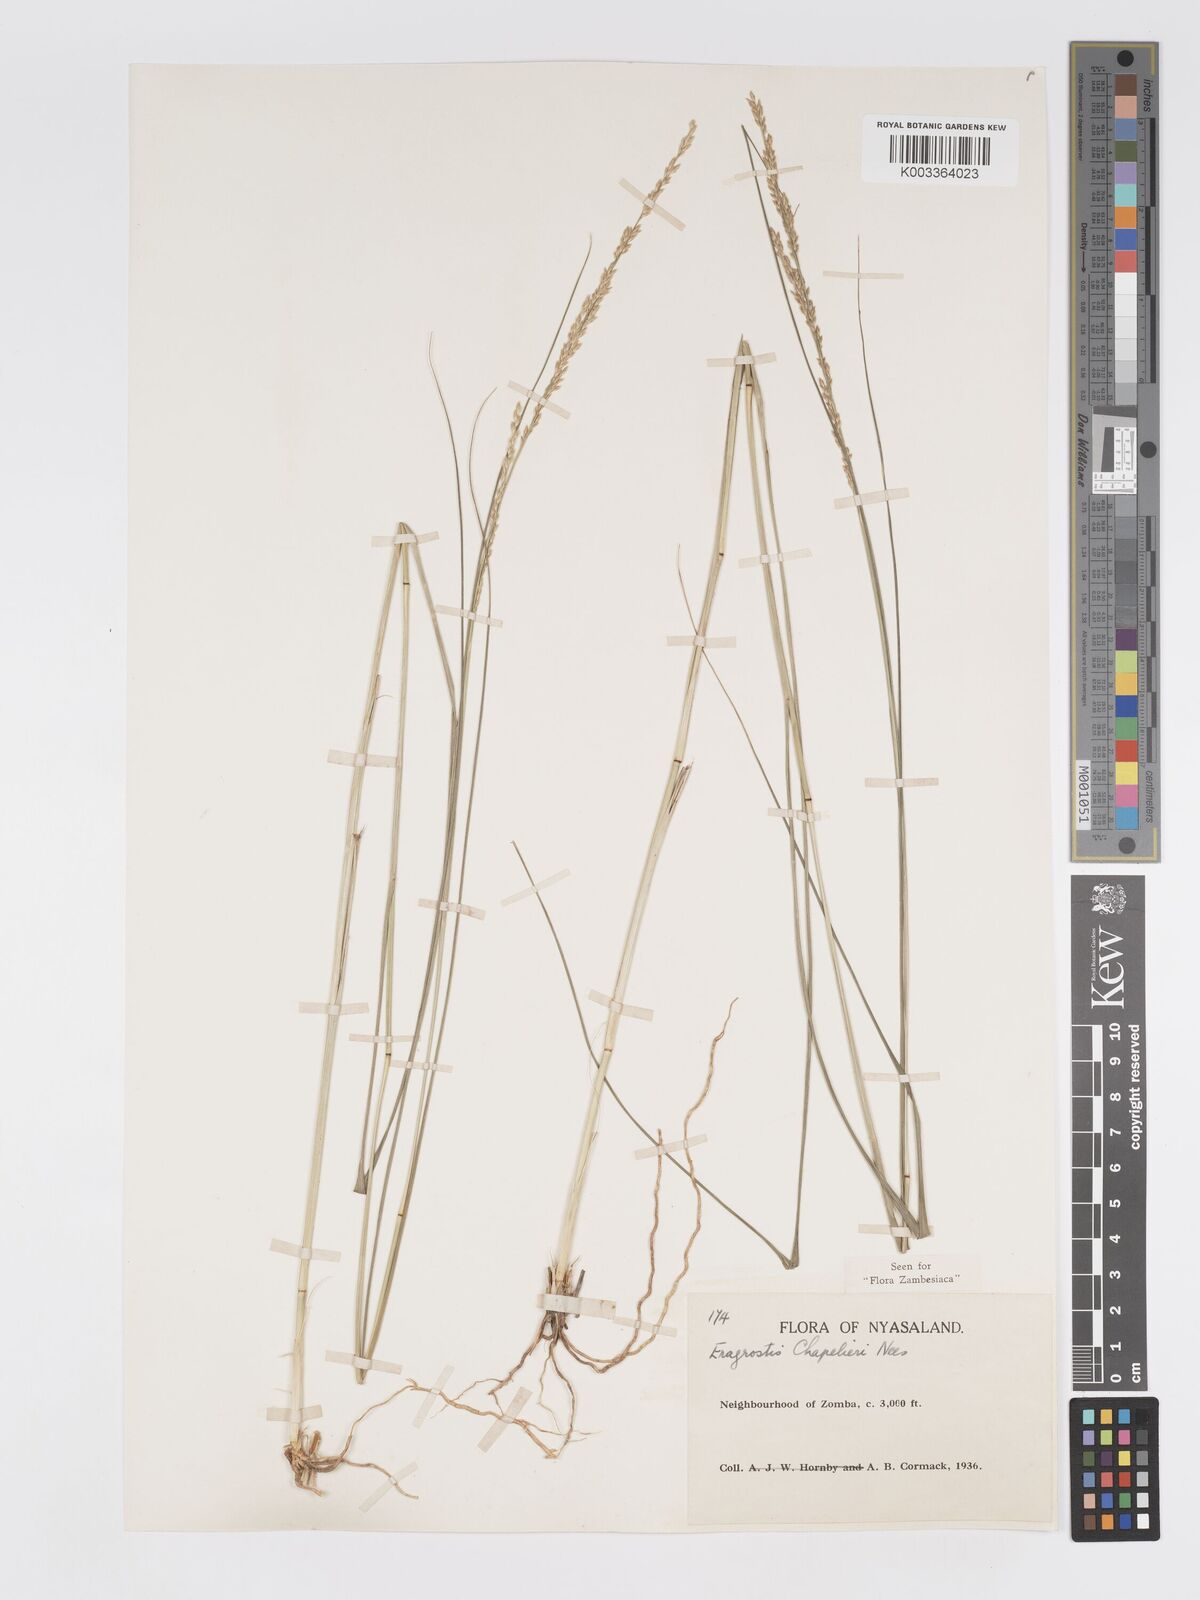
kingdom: Plantae
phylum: Tracheophyta
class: Liliopsida
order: Poales
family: Poaceae
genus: Eragrostis
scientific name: Eragrostis chapelieri
